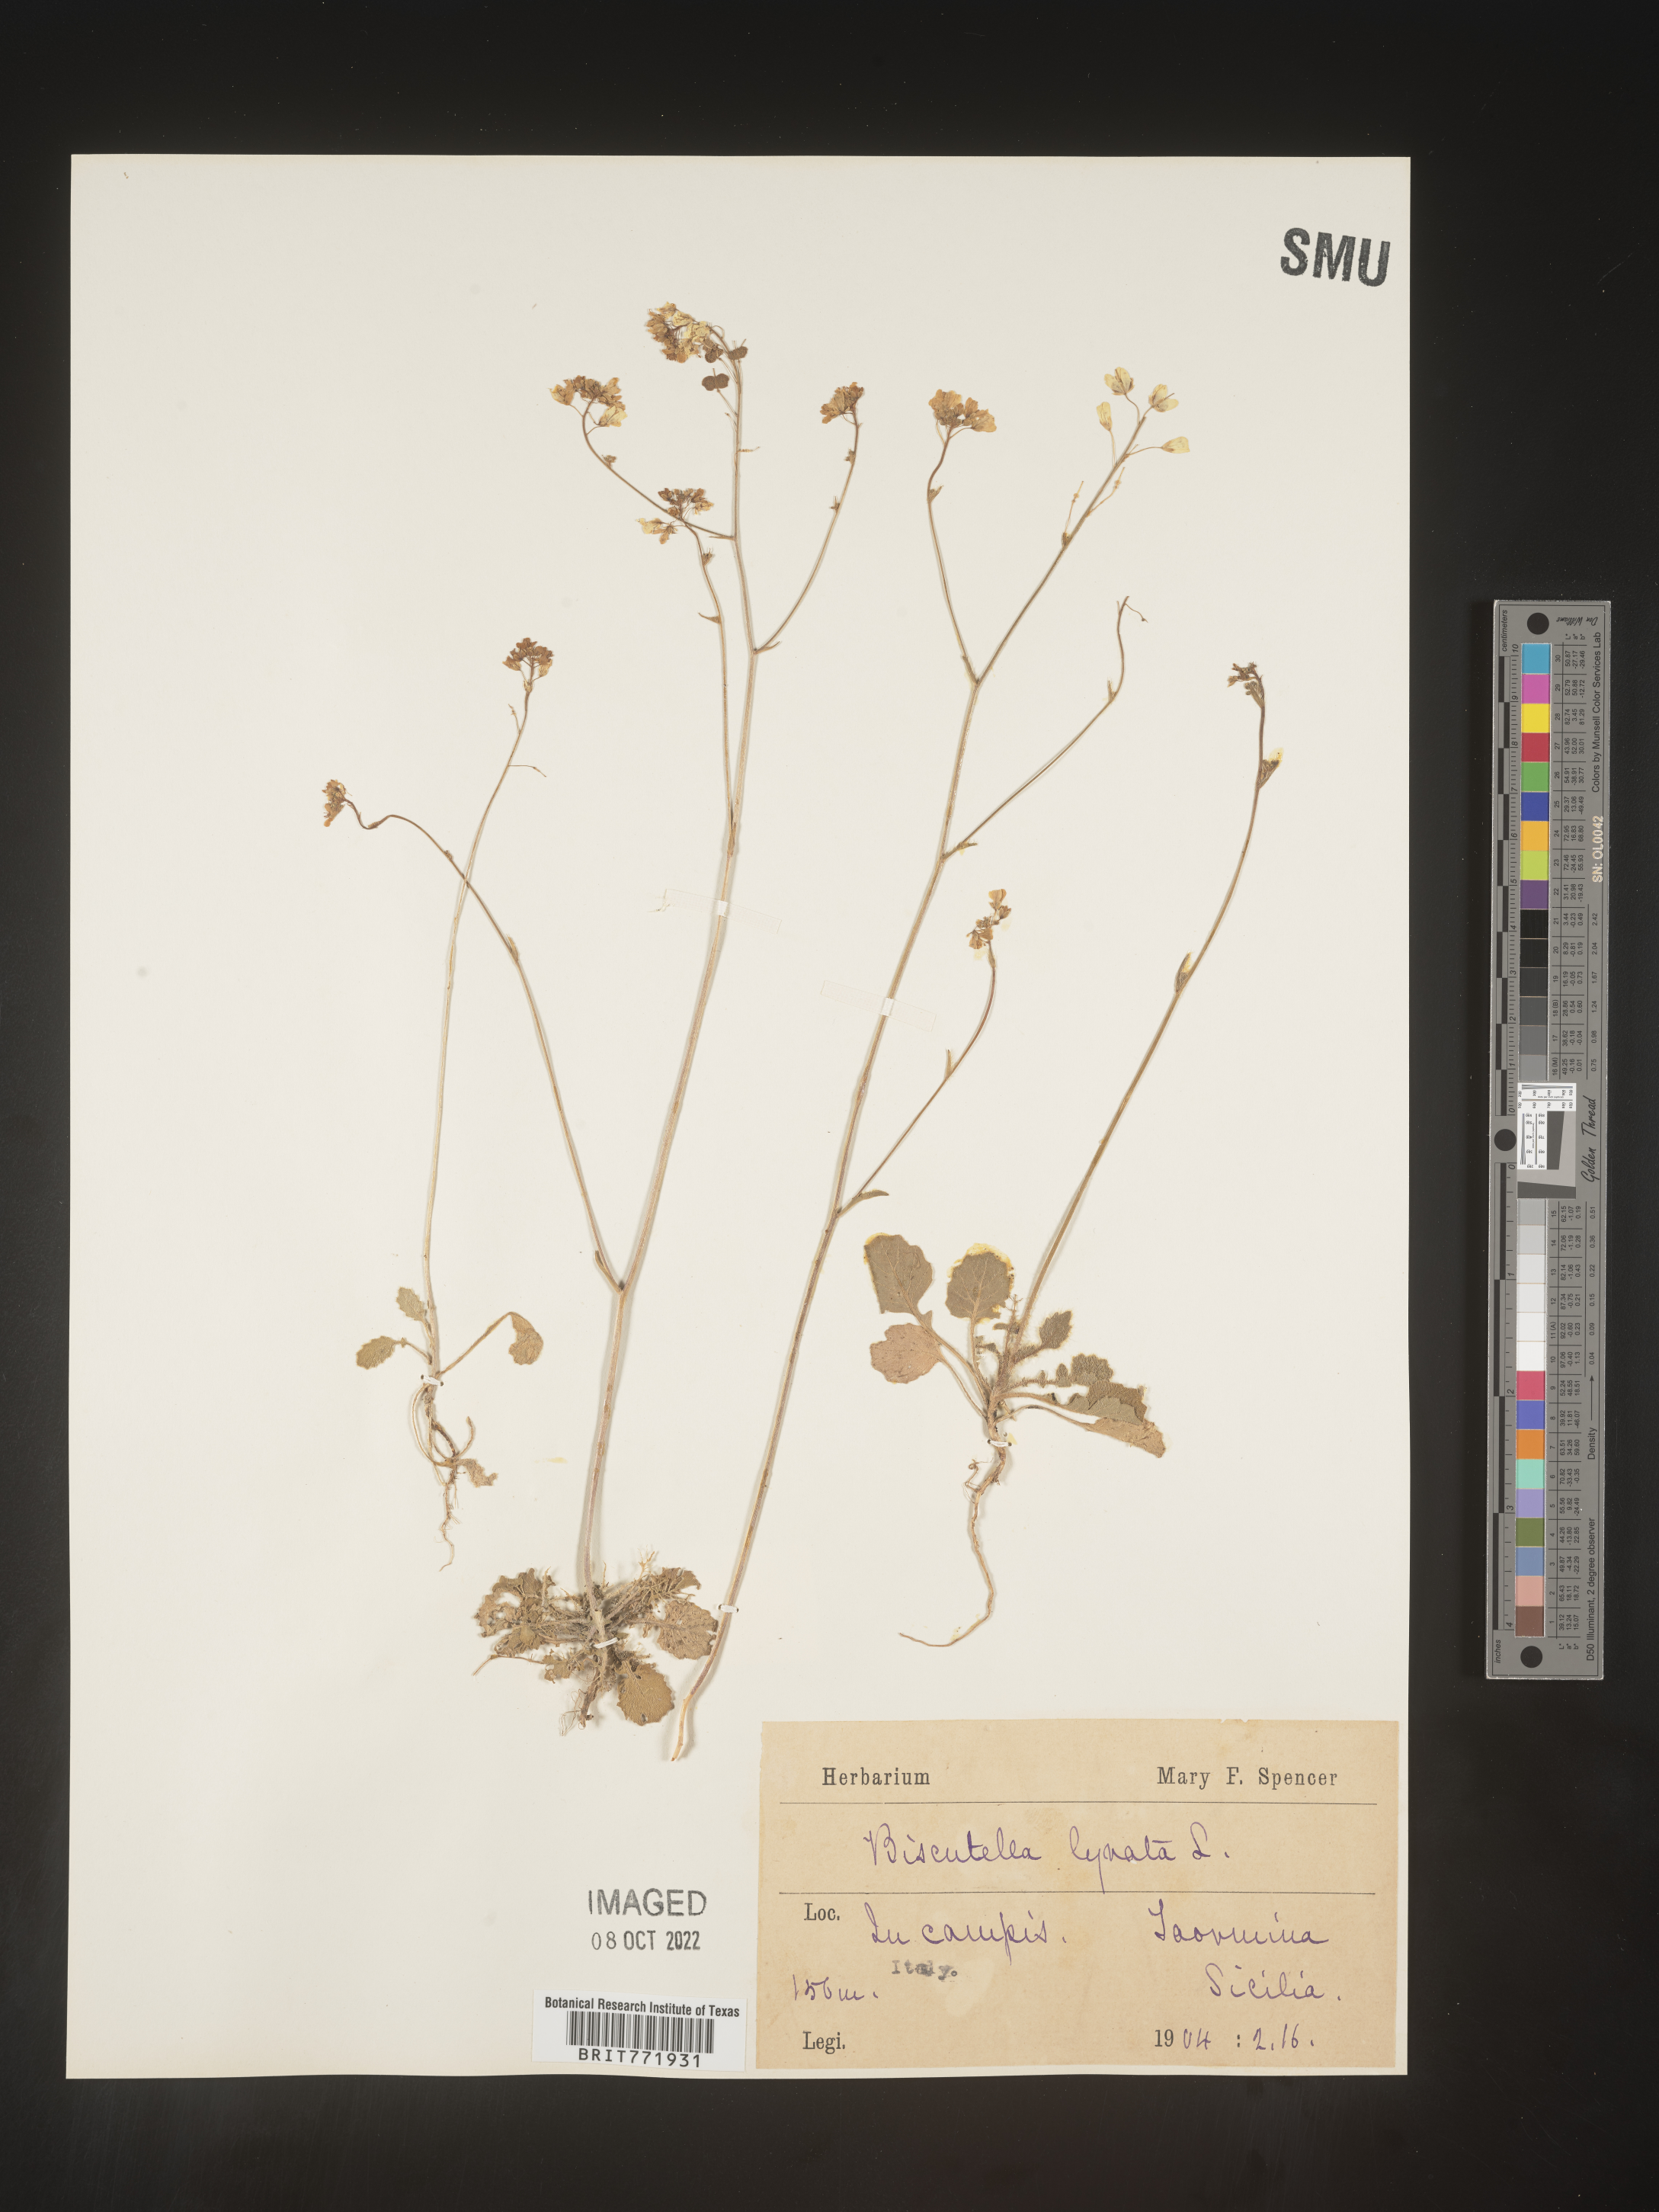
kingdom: Plantae
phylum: Tracheophyta
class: Magnoliopsida
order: Brassicales
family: Brassicaceae
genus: Biscutella
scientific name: Biscutella
